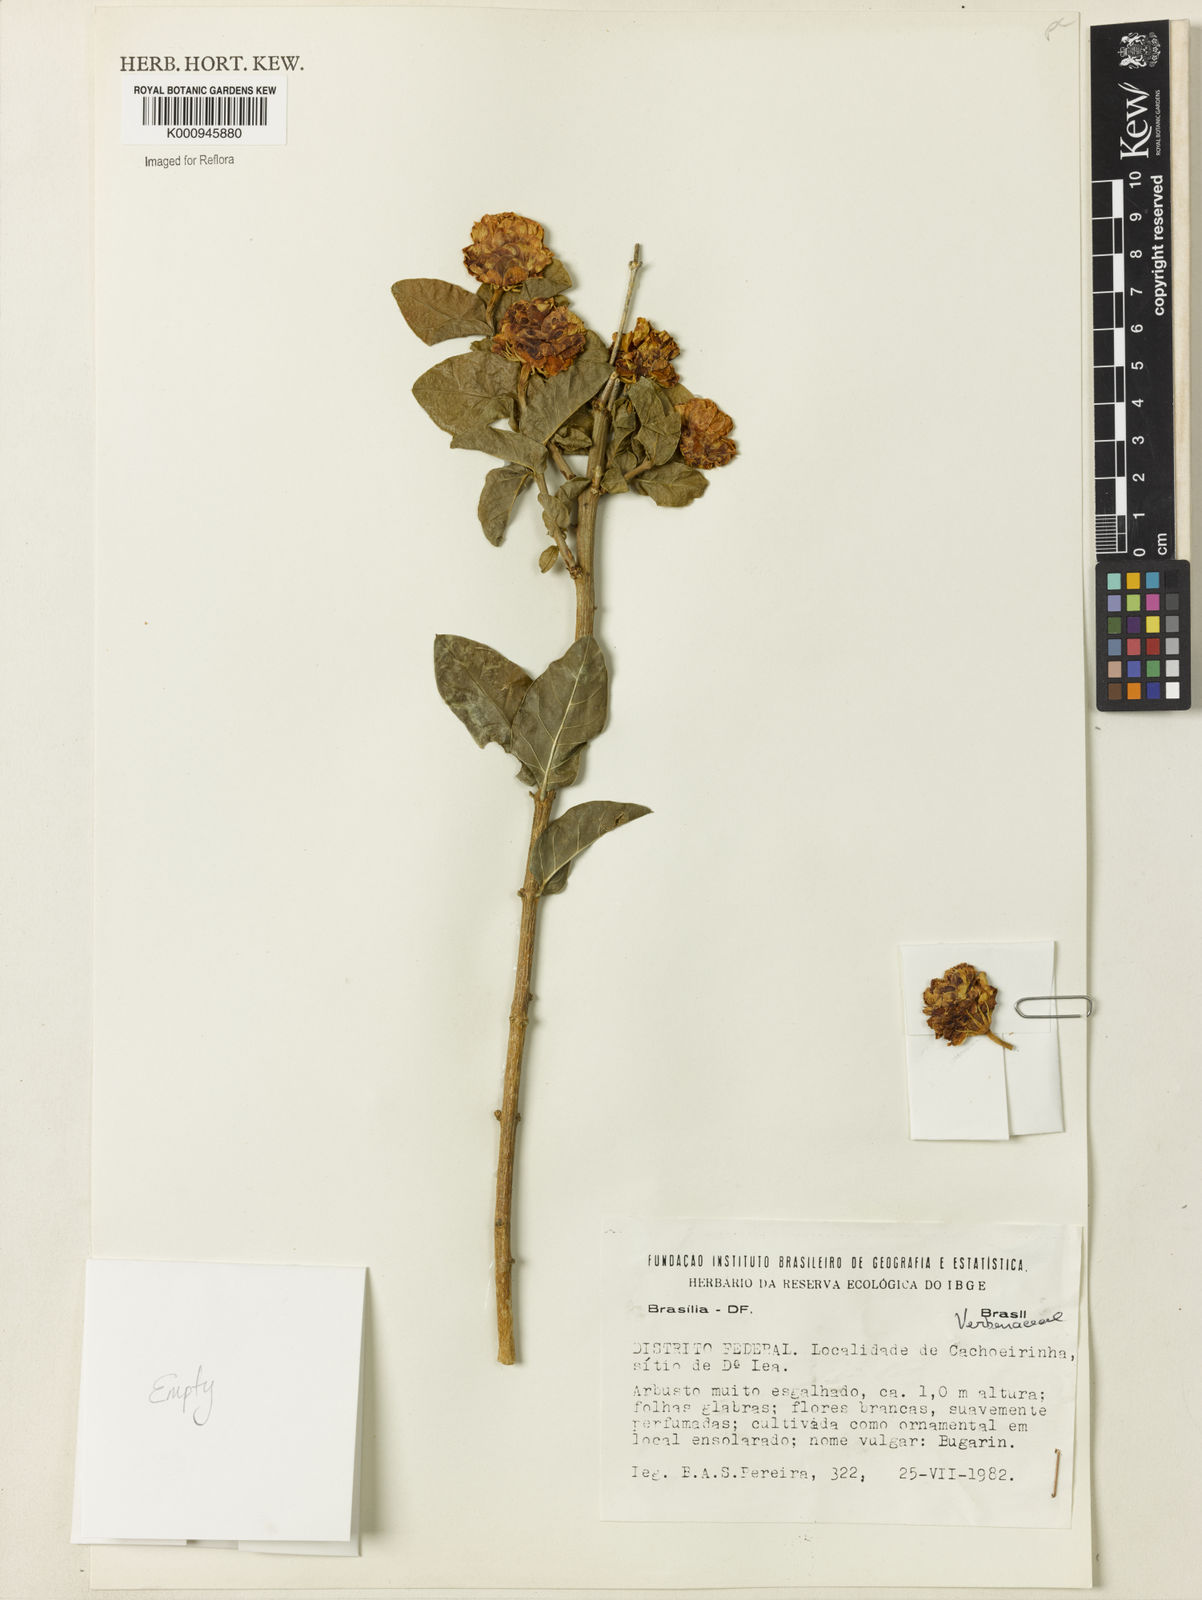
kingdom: Plantae
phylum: Tracheophyta
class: Magnoliopsida
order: Lamiales
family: Verbenaceae
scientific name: Verbenaceae
